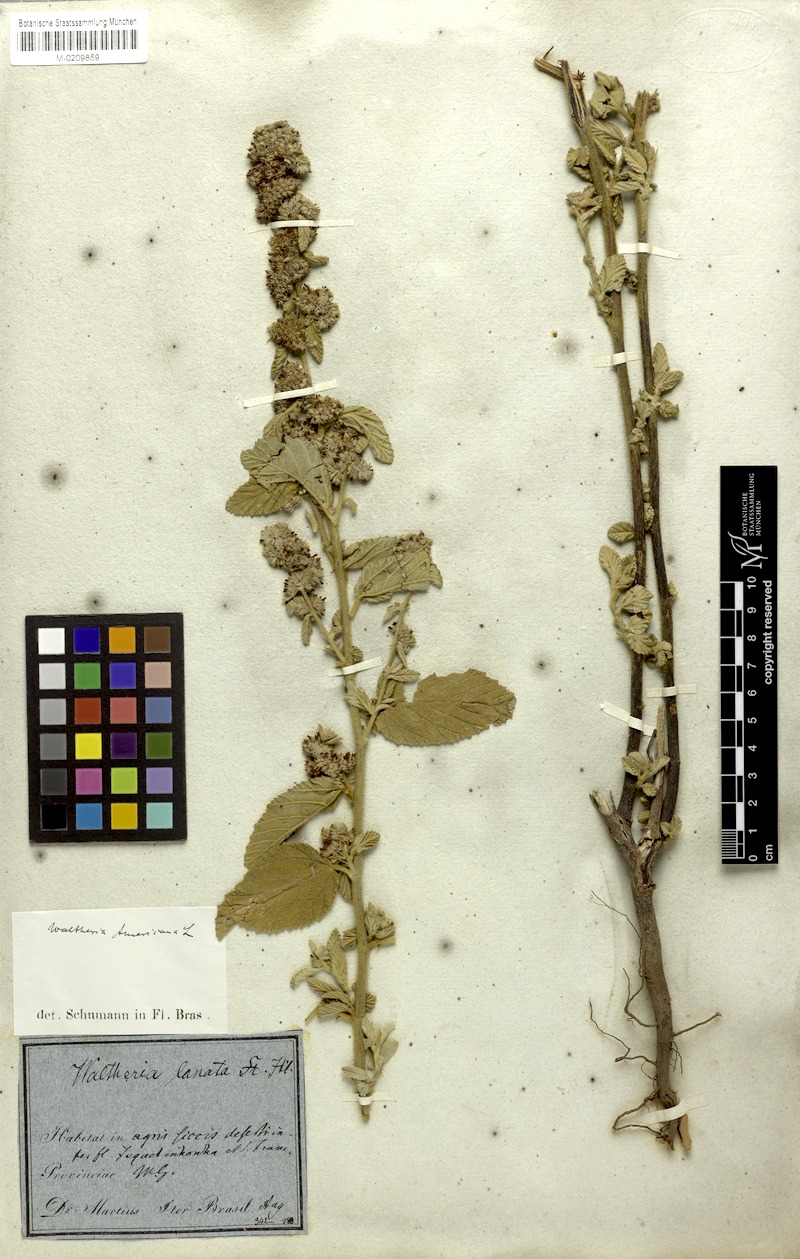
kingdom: Plantae
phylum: Tracheophyta
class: Magnoliopsida
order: Malvales
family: Malvaceae
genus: Waltheria
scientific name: Waltheria indica
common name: Leather-coat
